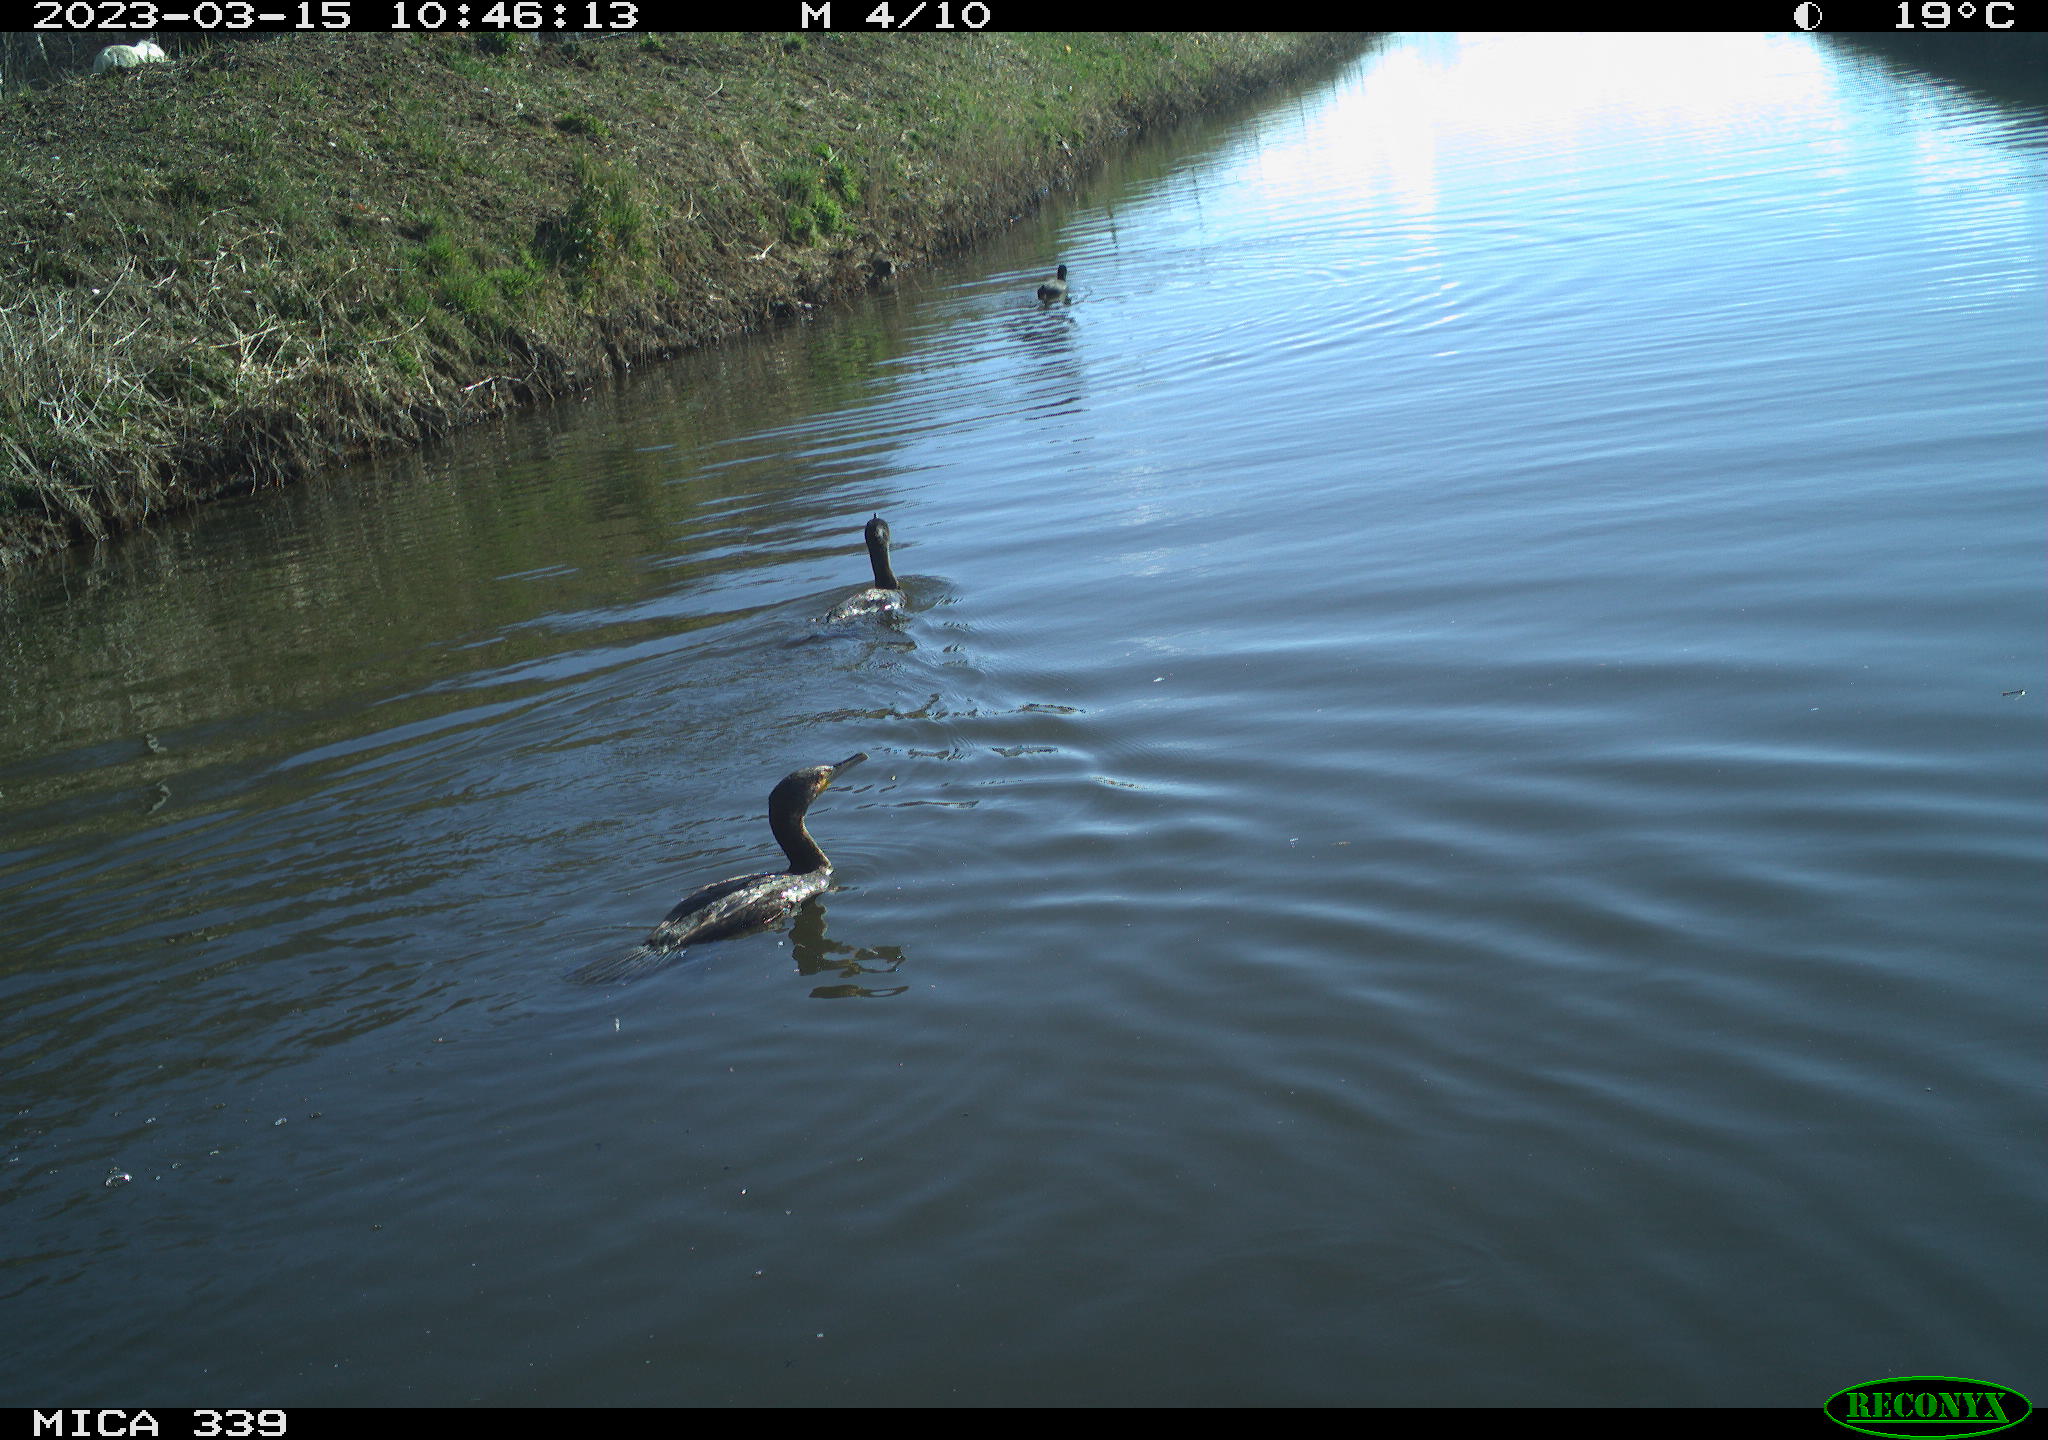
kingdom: Animalia
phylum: Chordata
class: Aves
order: Anseriformes
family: Anatidae
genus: Anas
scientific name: Anas
